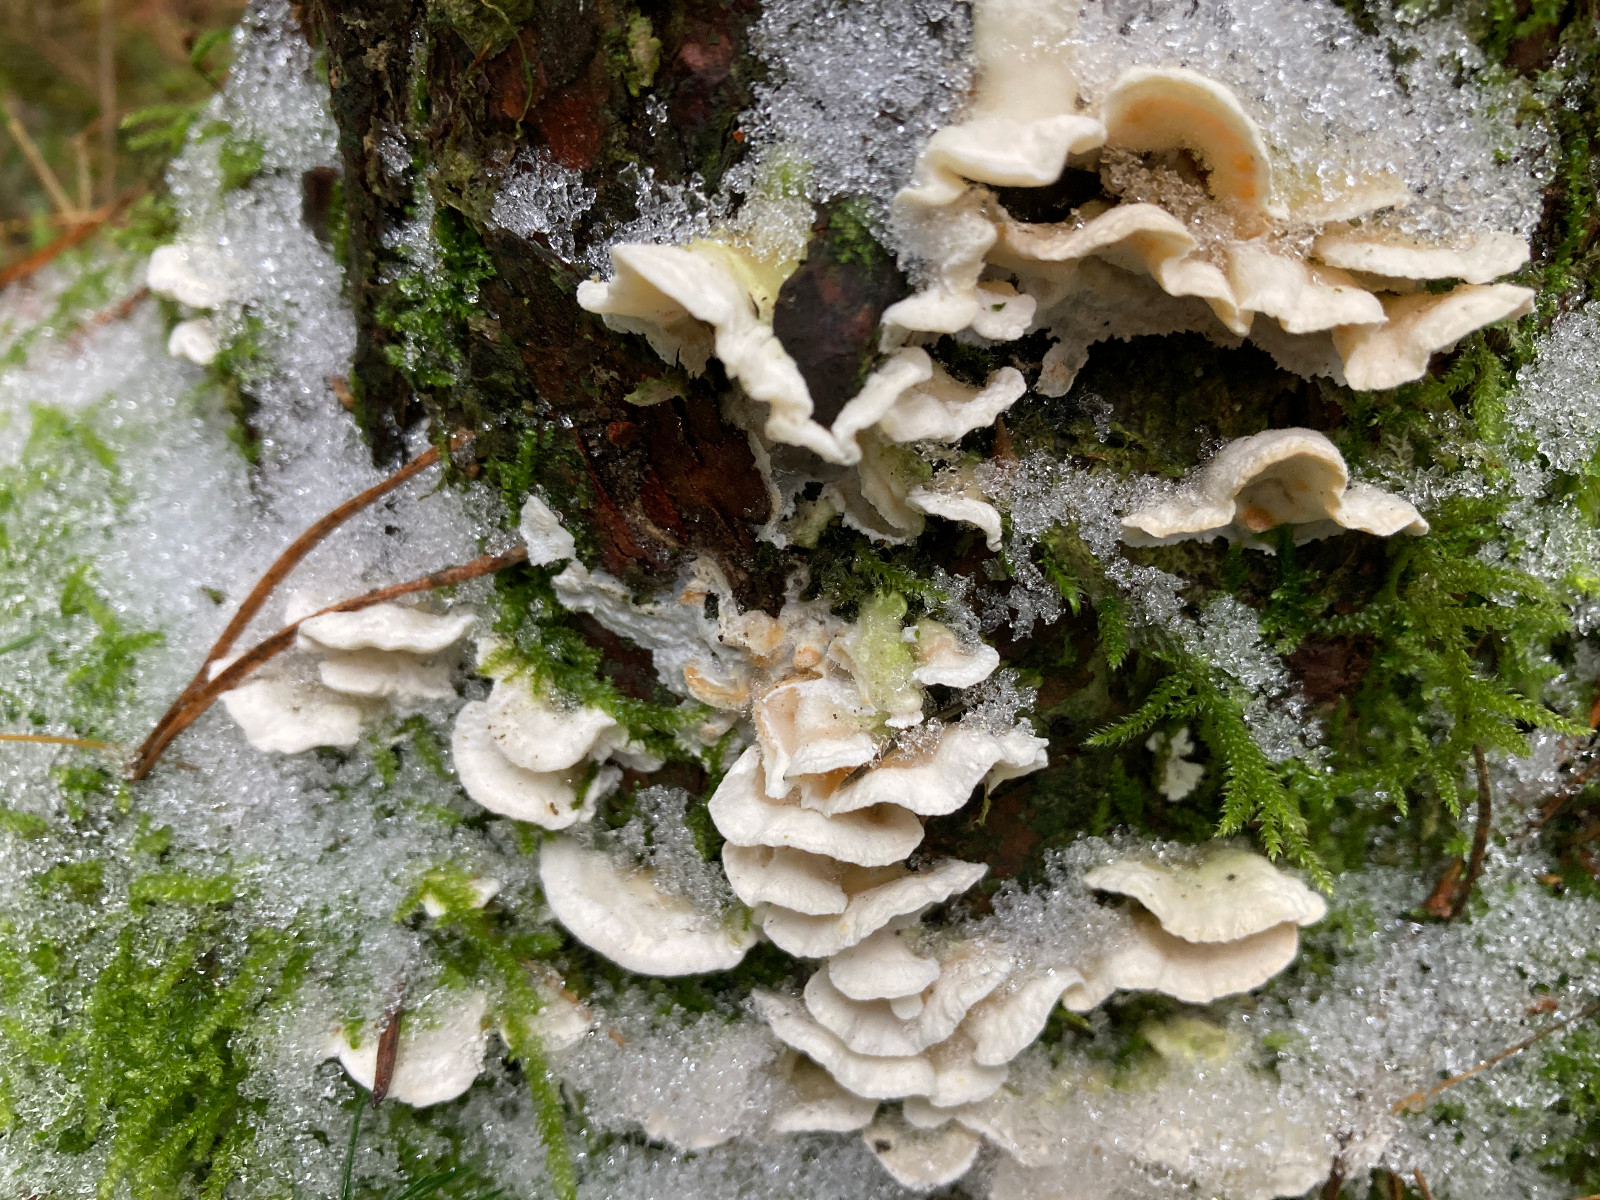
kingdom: Fungi
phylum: Basidiomycota
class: Agaricomycetes
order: Polyporales
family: Incrustoporiaceae
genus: Skeletocutis
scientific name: Skeletocutis amorpha
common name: orange krystalporesvamp
